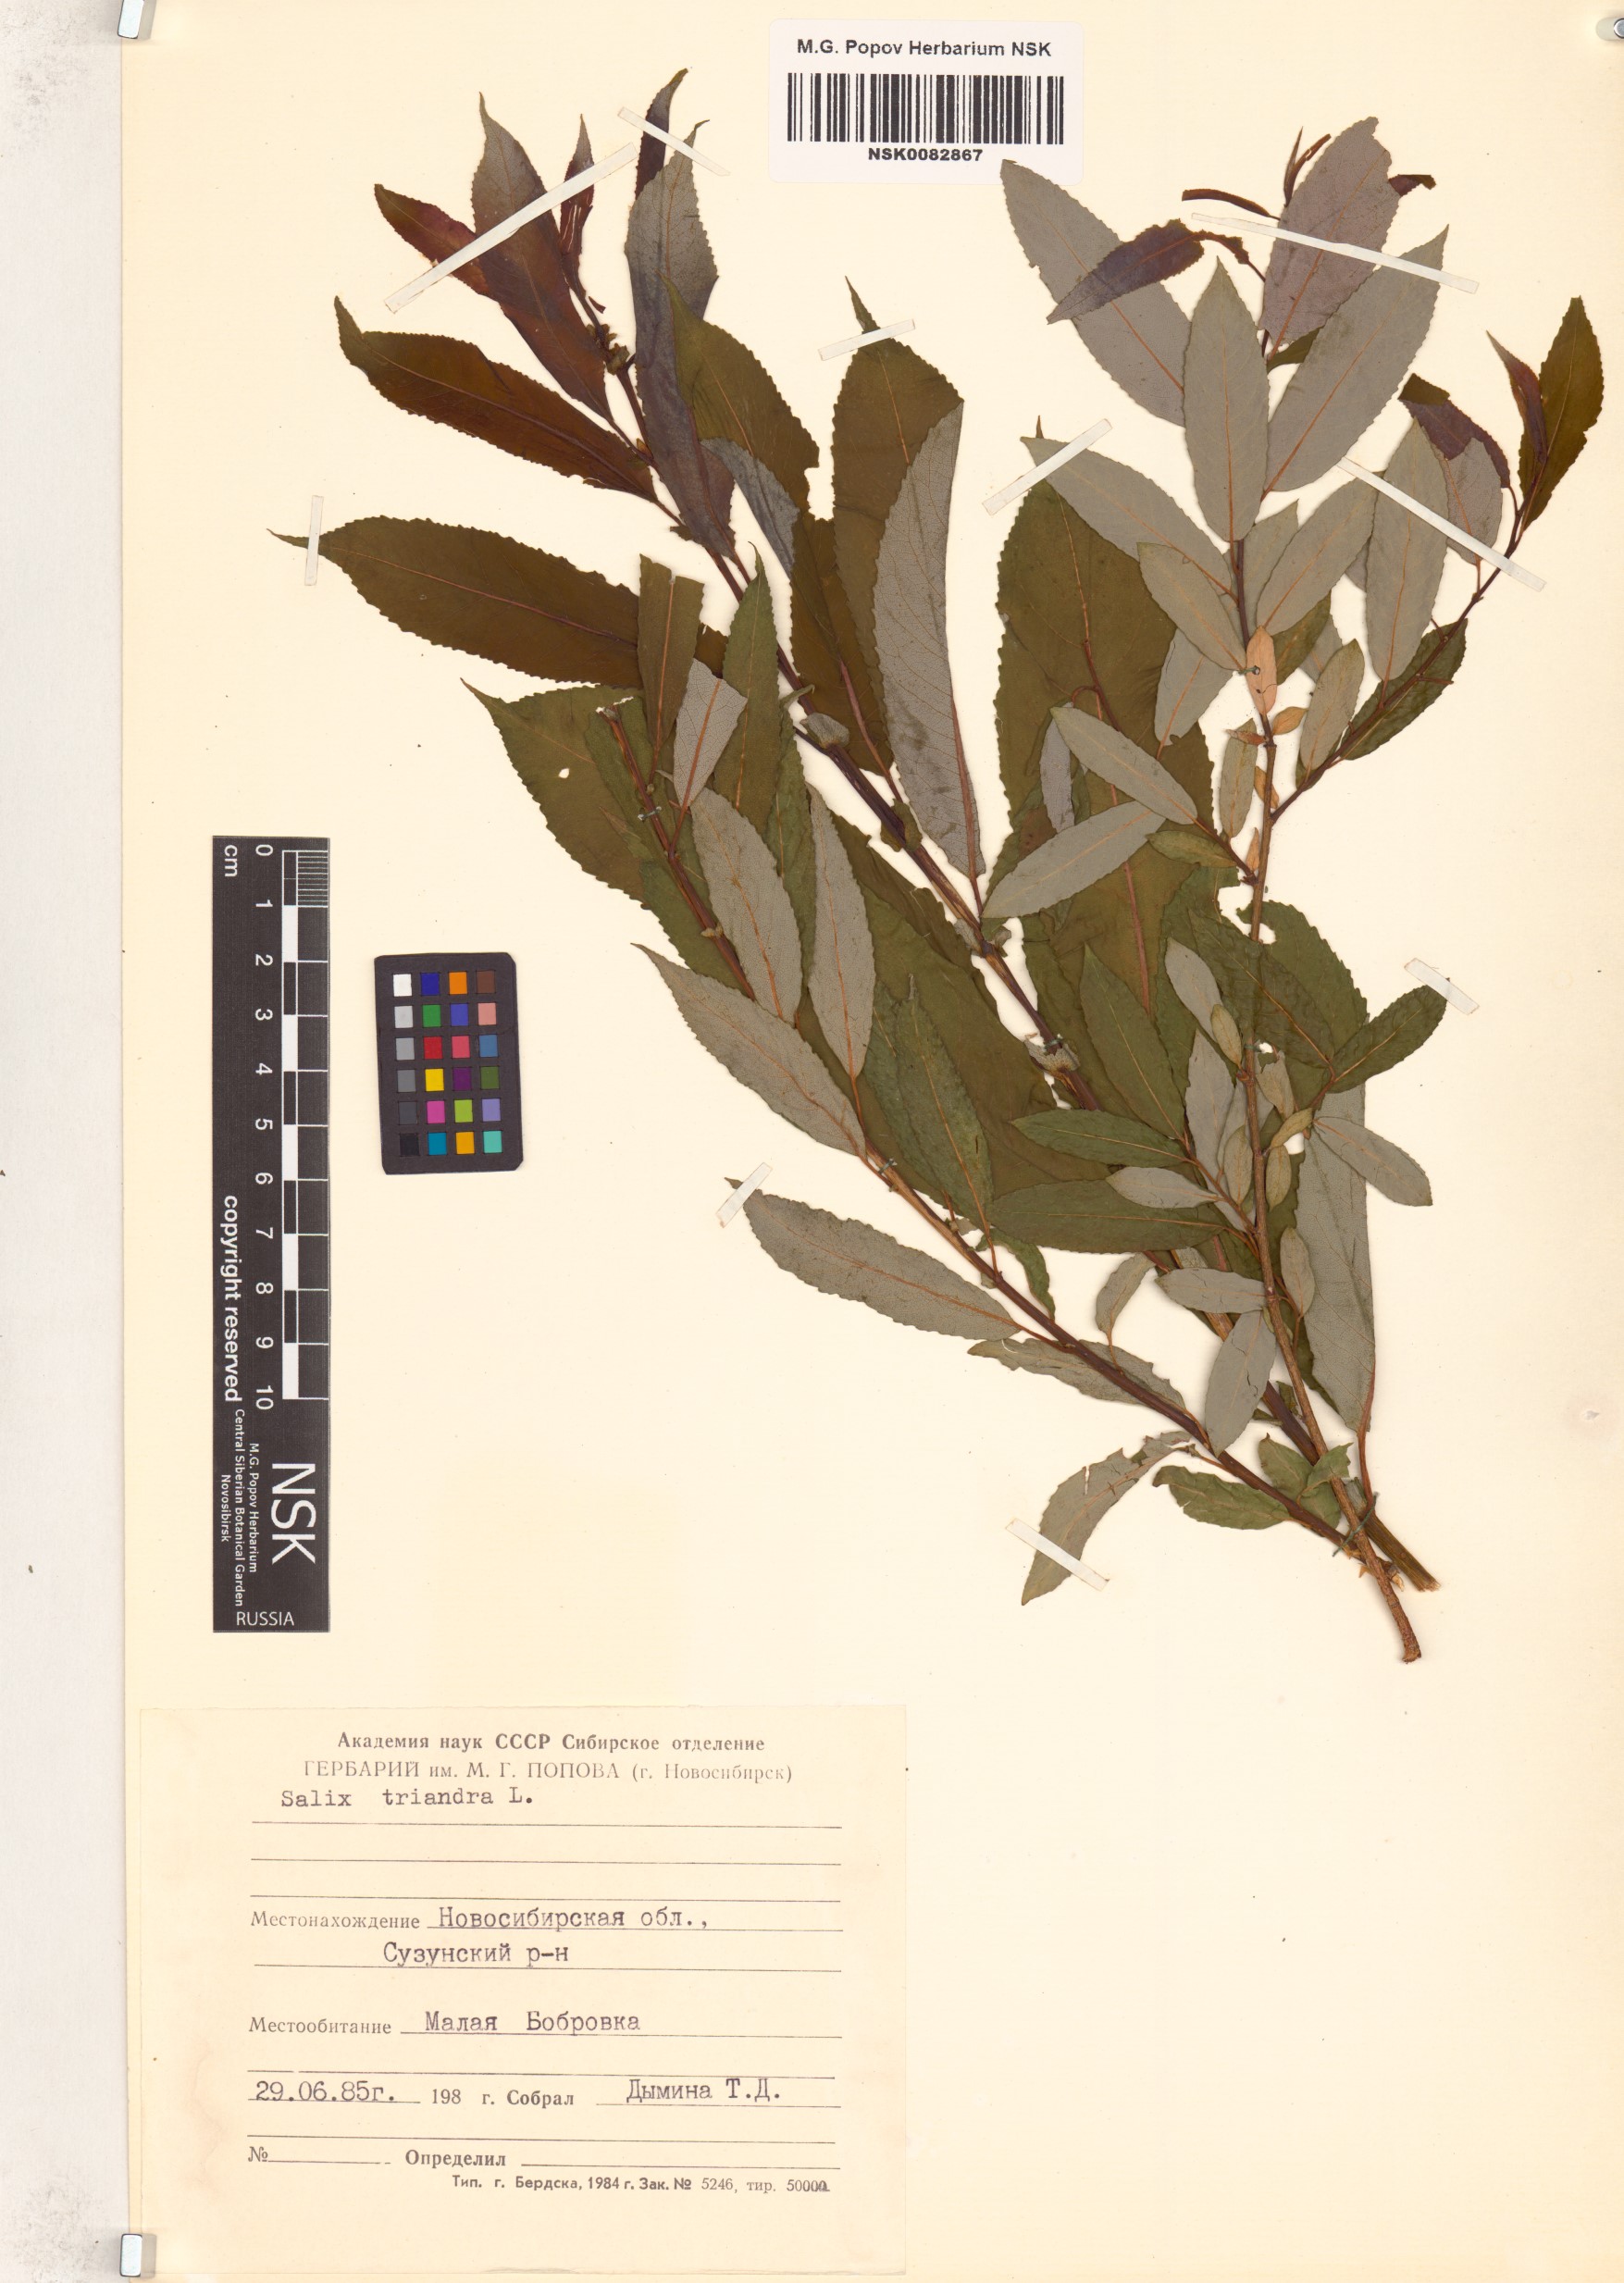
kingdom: Plantae
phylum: Tracheophyta
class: Magnoliopsida
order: Malpighiales
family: Salicaceae
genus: Salix
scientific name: Salix triandra
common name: Almond willow
